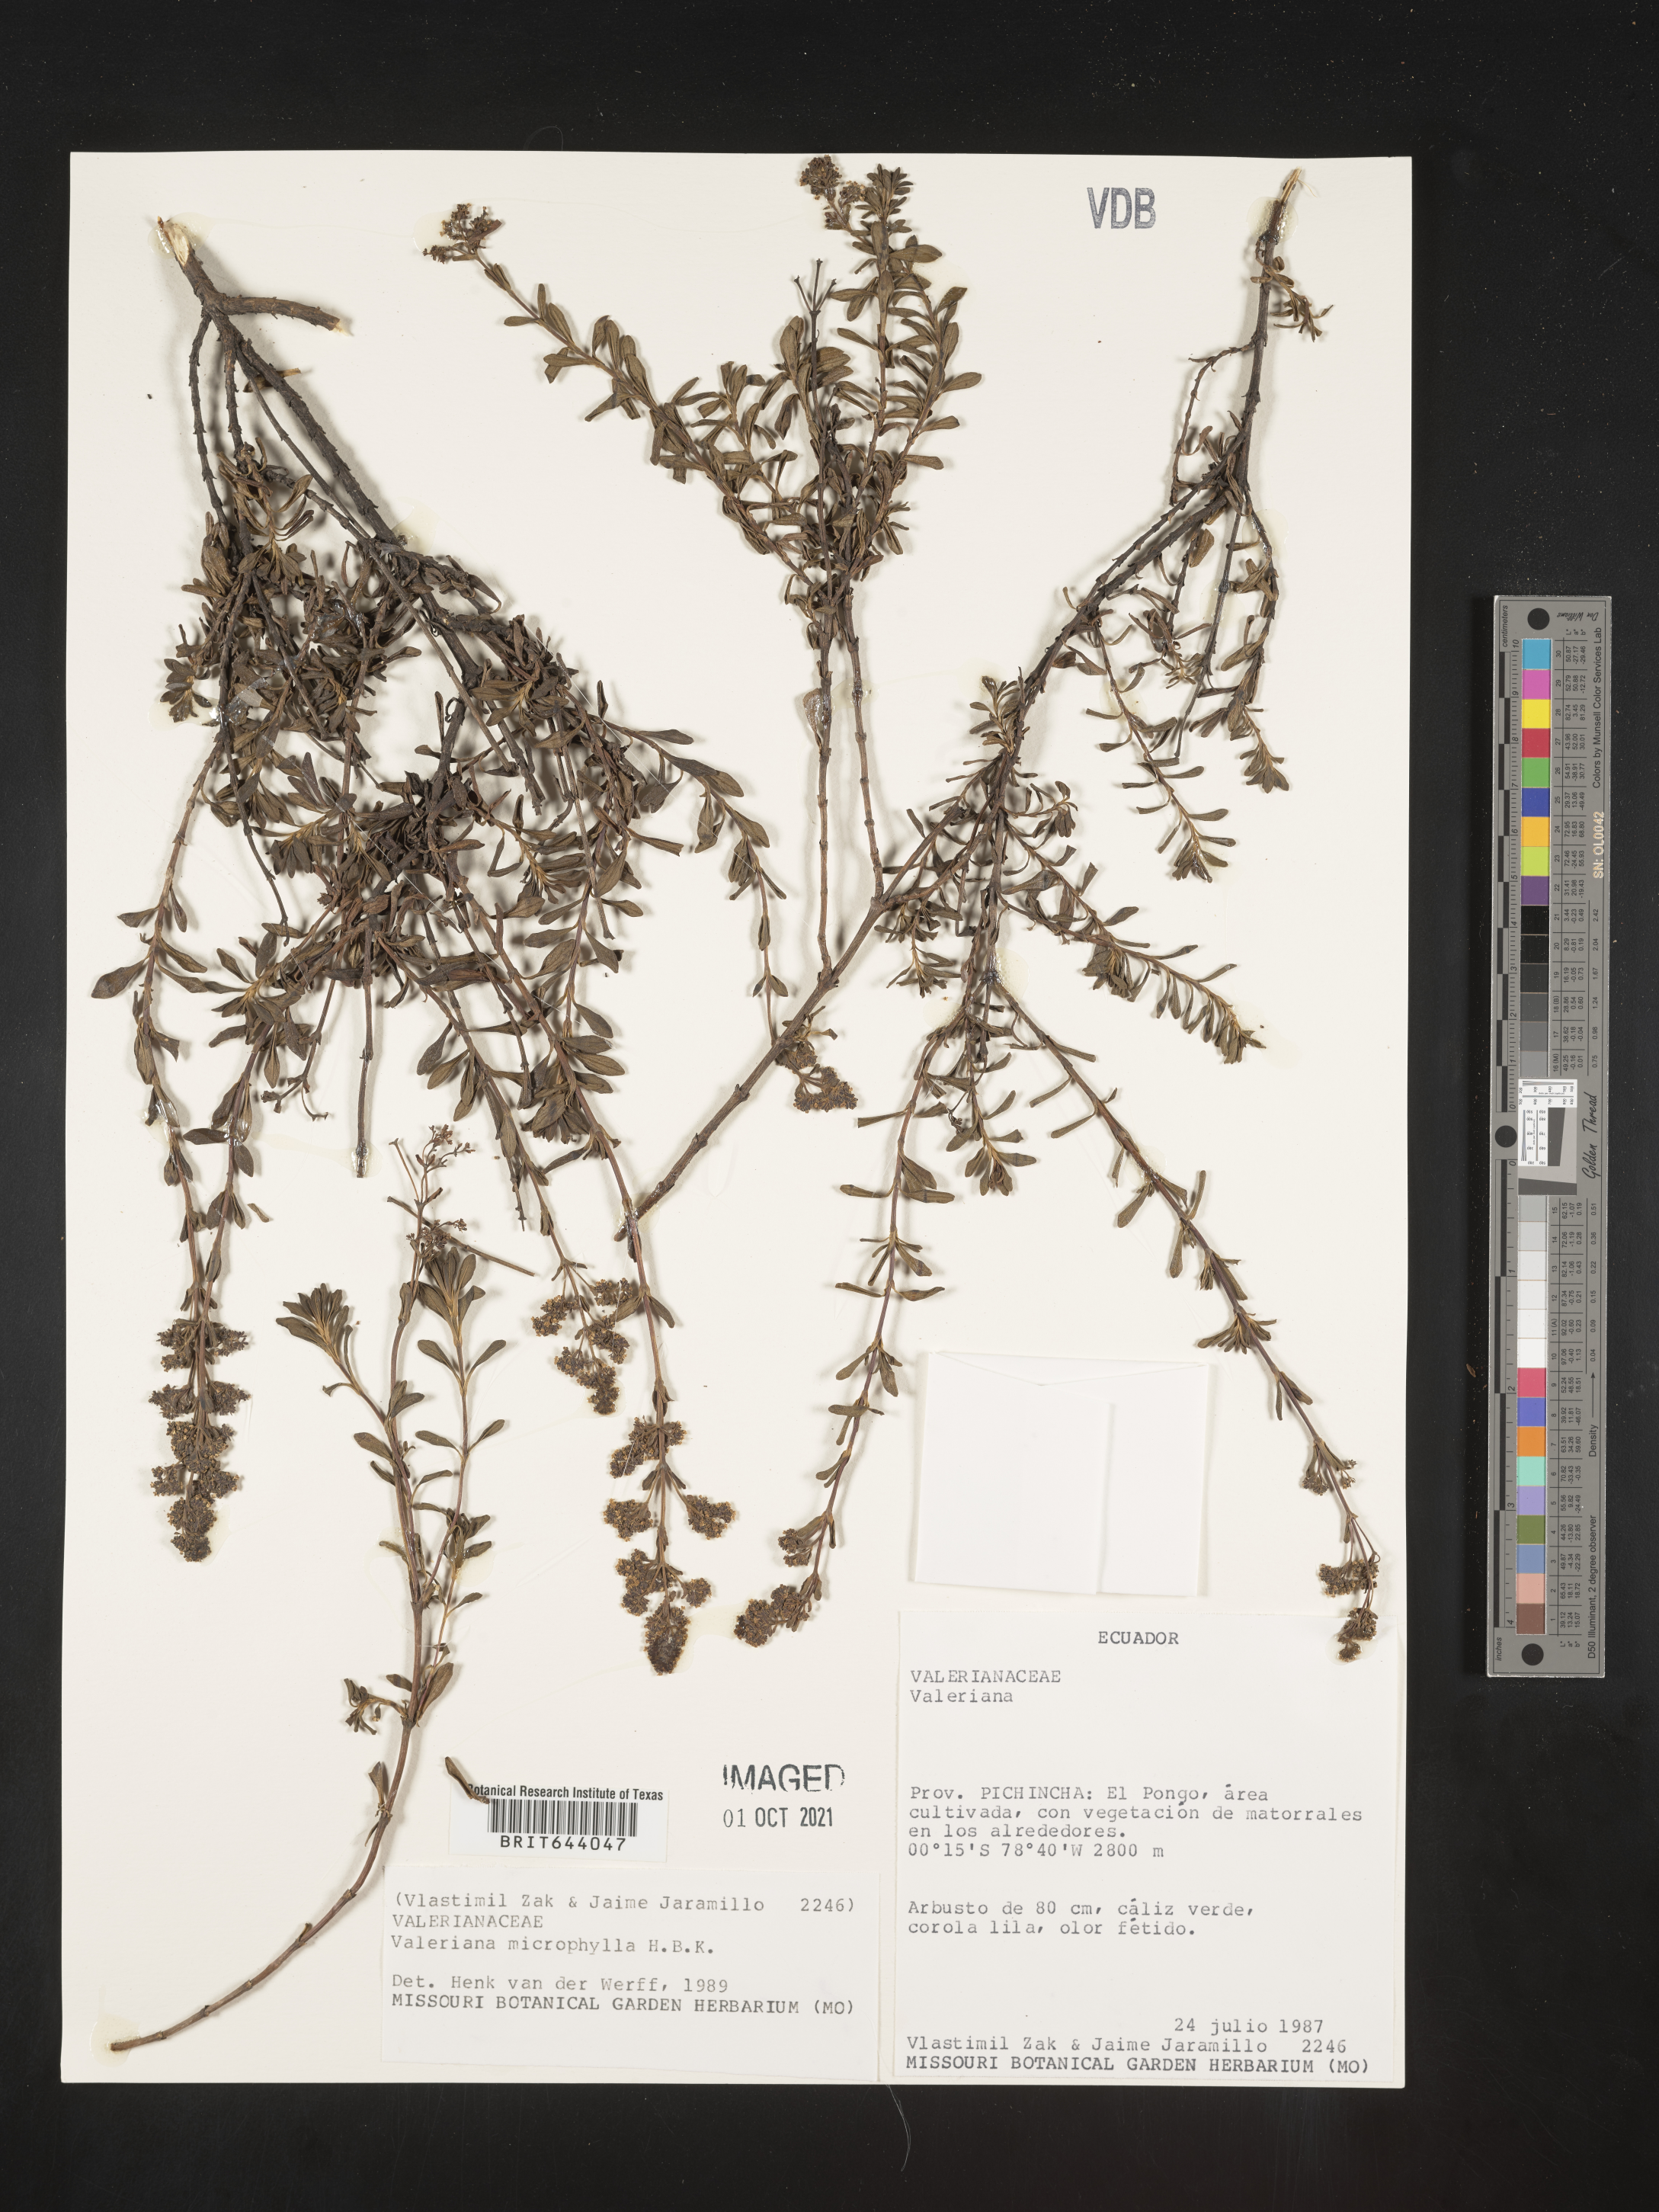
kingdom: Plantae
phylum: Tracheophyta
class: Magnoliopsida
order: Dipsacales
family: Caprifoliaceae
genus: Valeriana
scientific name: Valeriana microphylla
